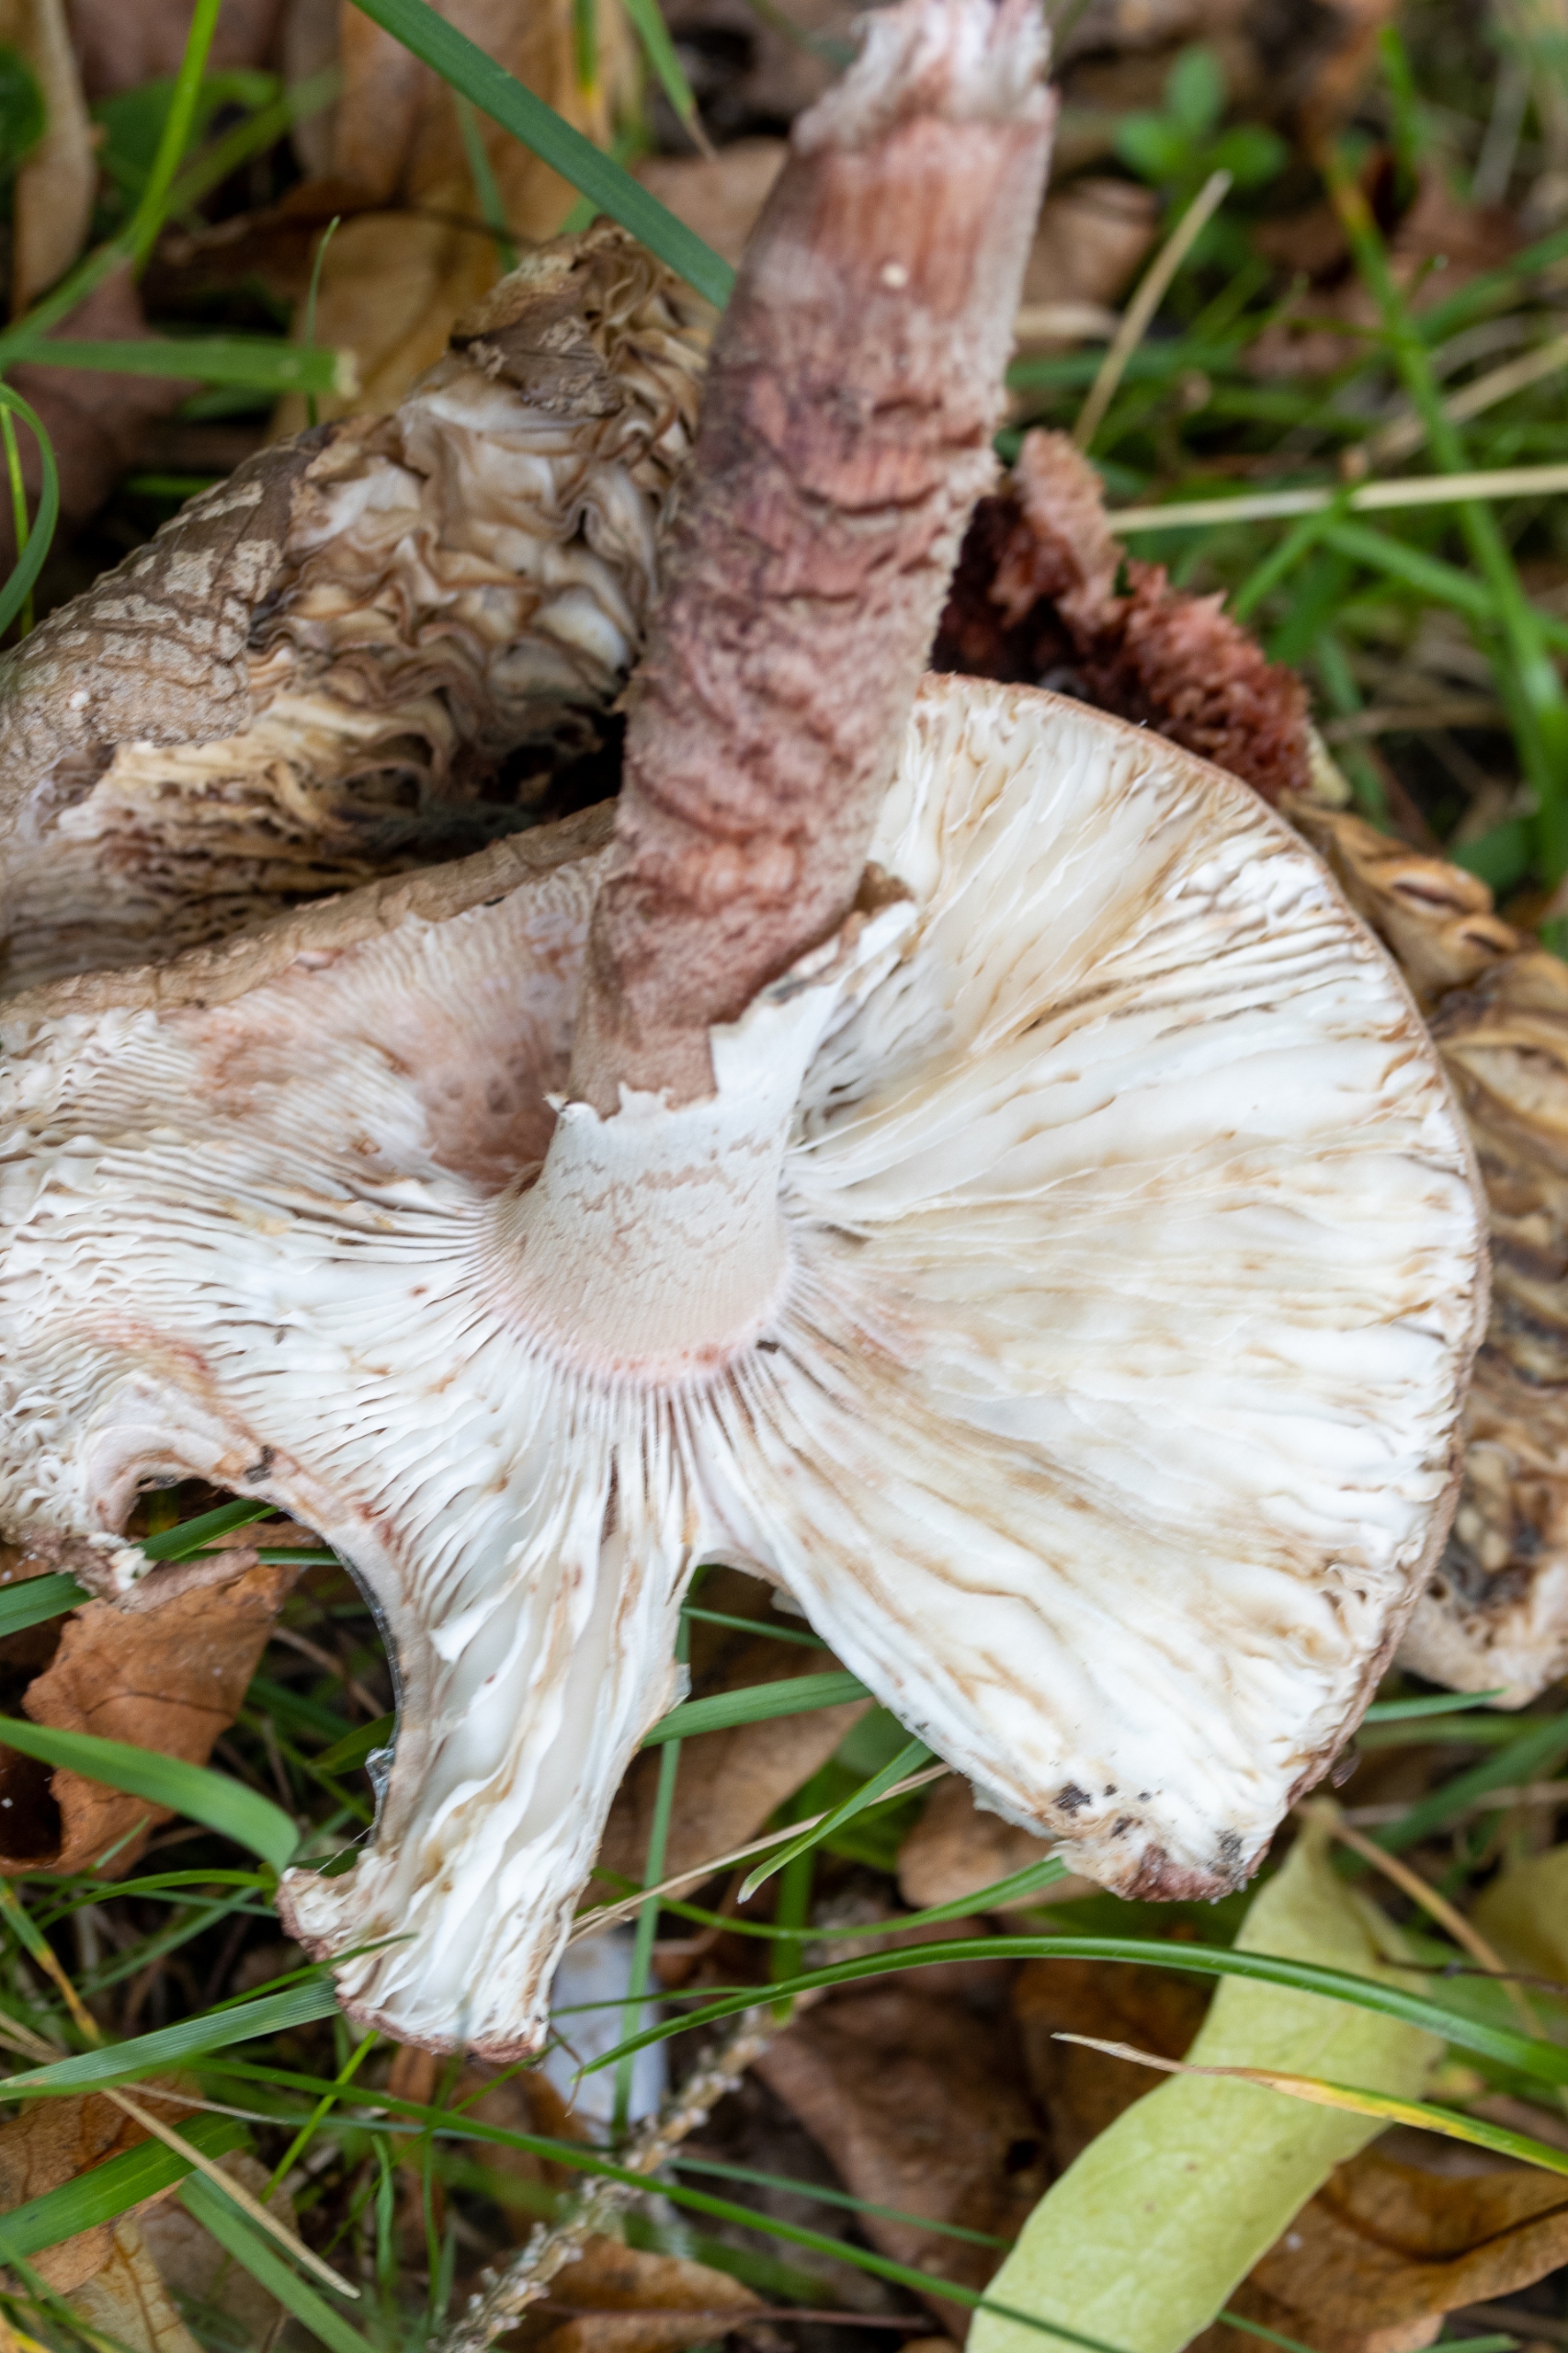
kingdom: Fungi
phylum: Basidiomycota
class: Agaricomycetes
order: Agaricales
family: Amanitaceae
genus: Amanita
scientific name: Amanita rubescens
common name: Rødmende fluesvamp (varietet)
